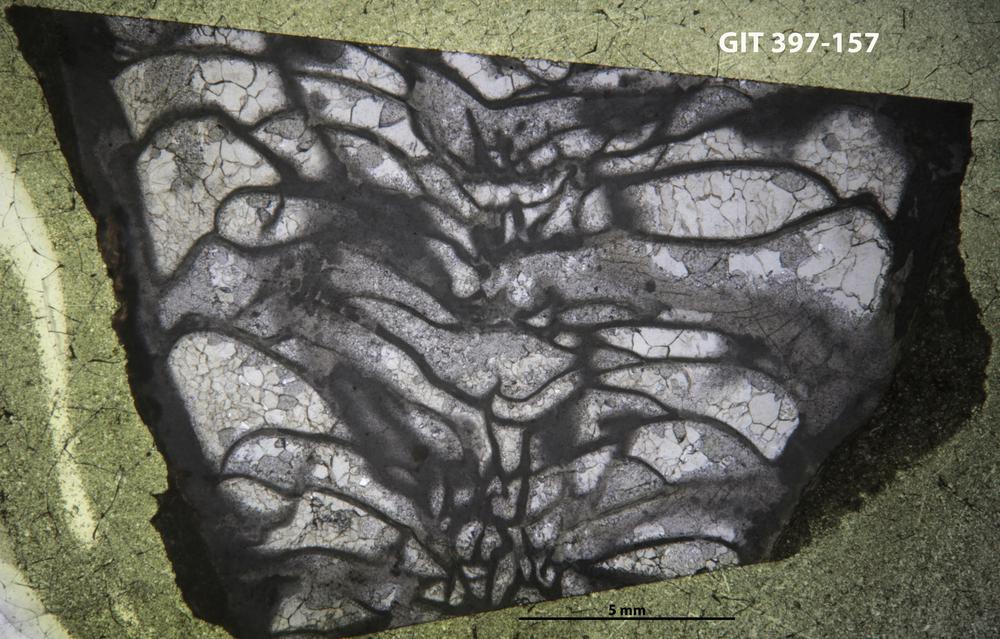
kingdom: Animalia
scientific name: Animalia
